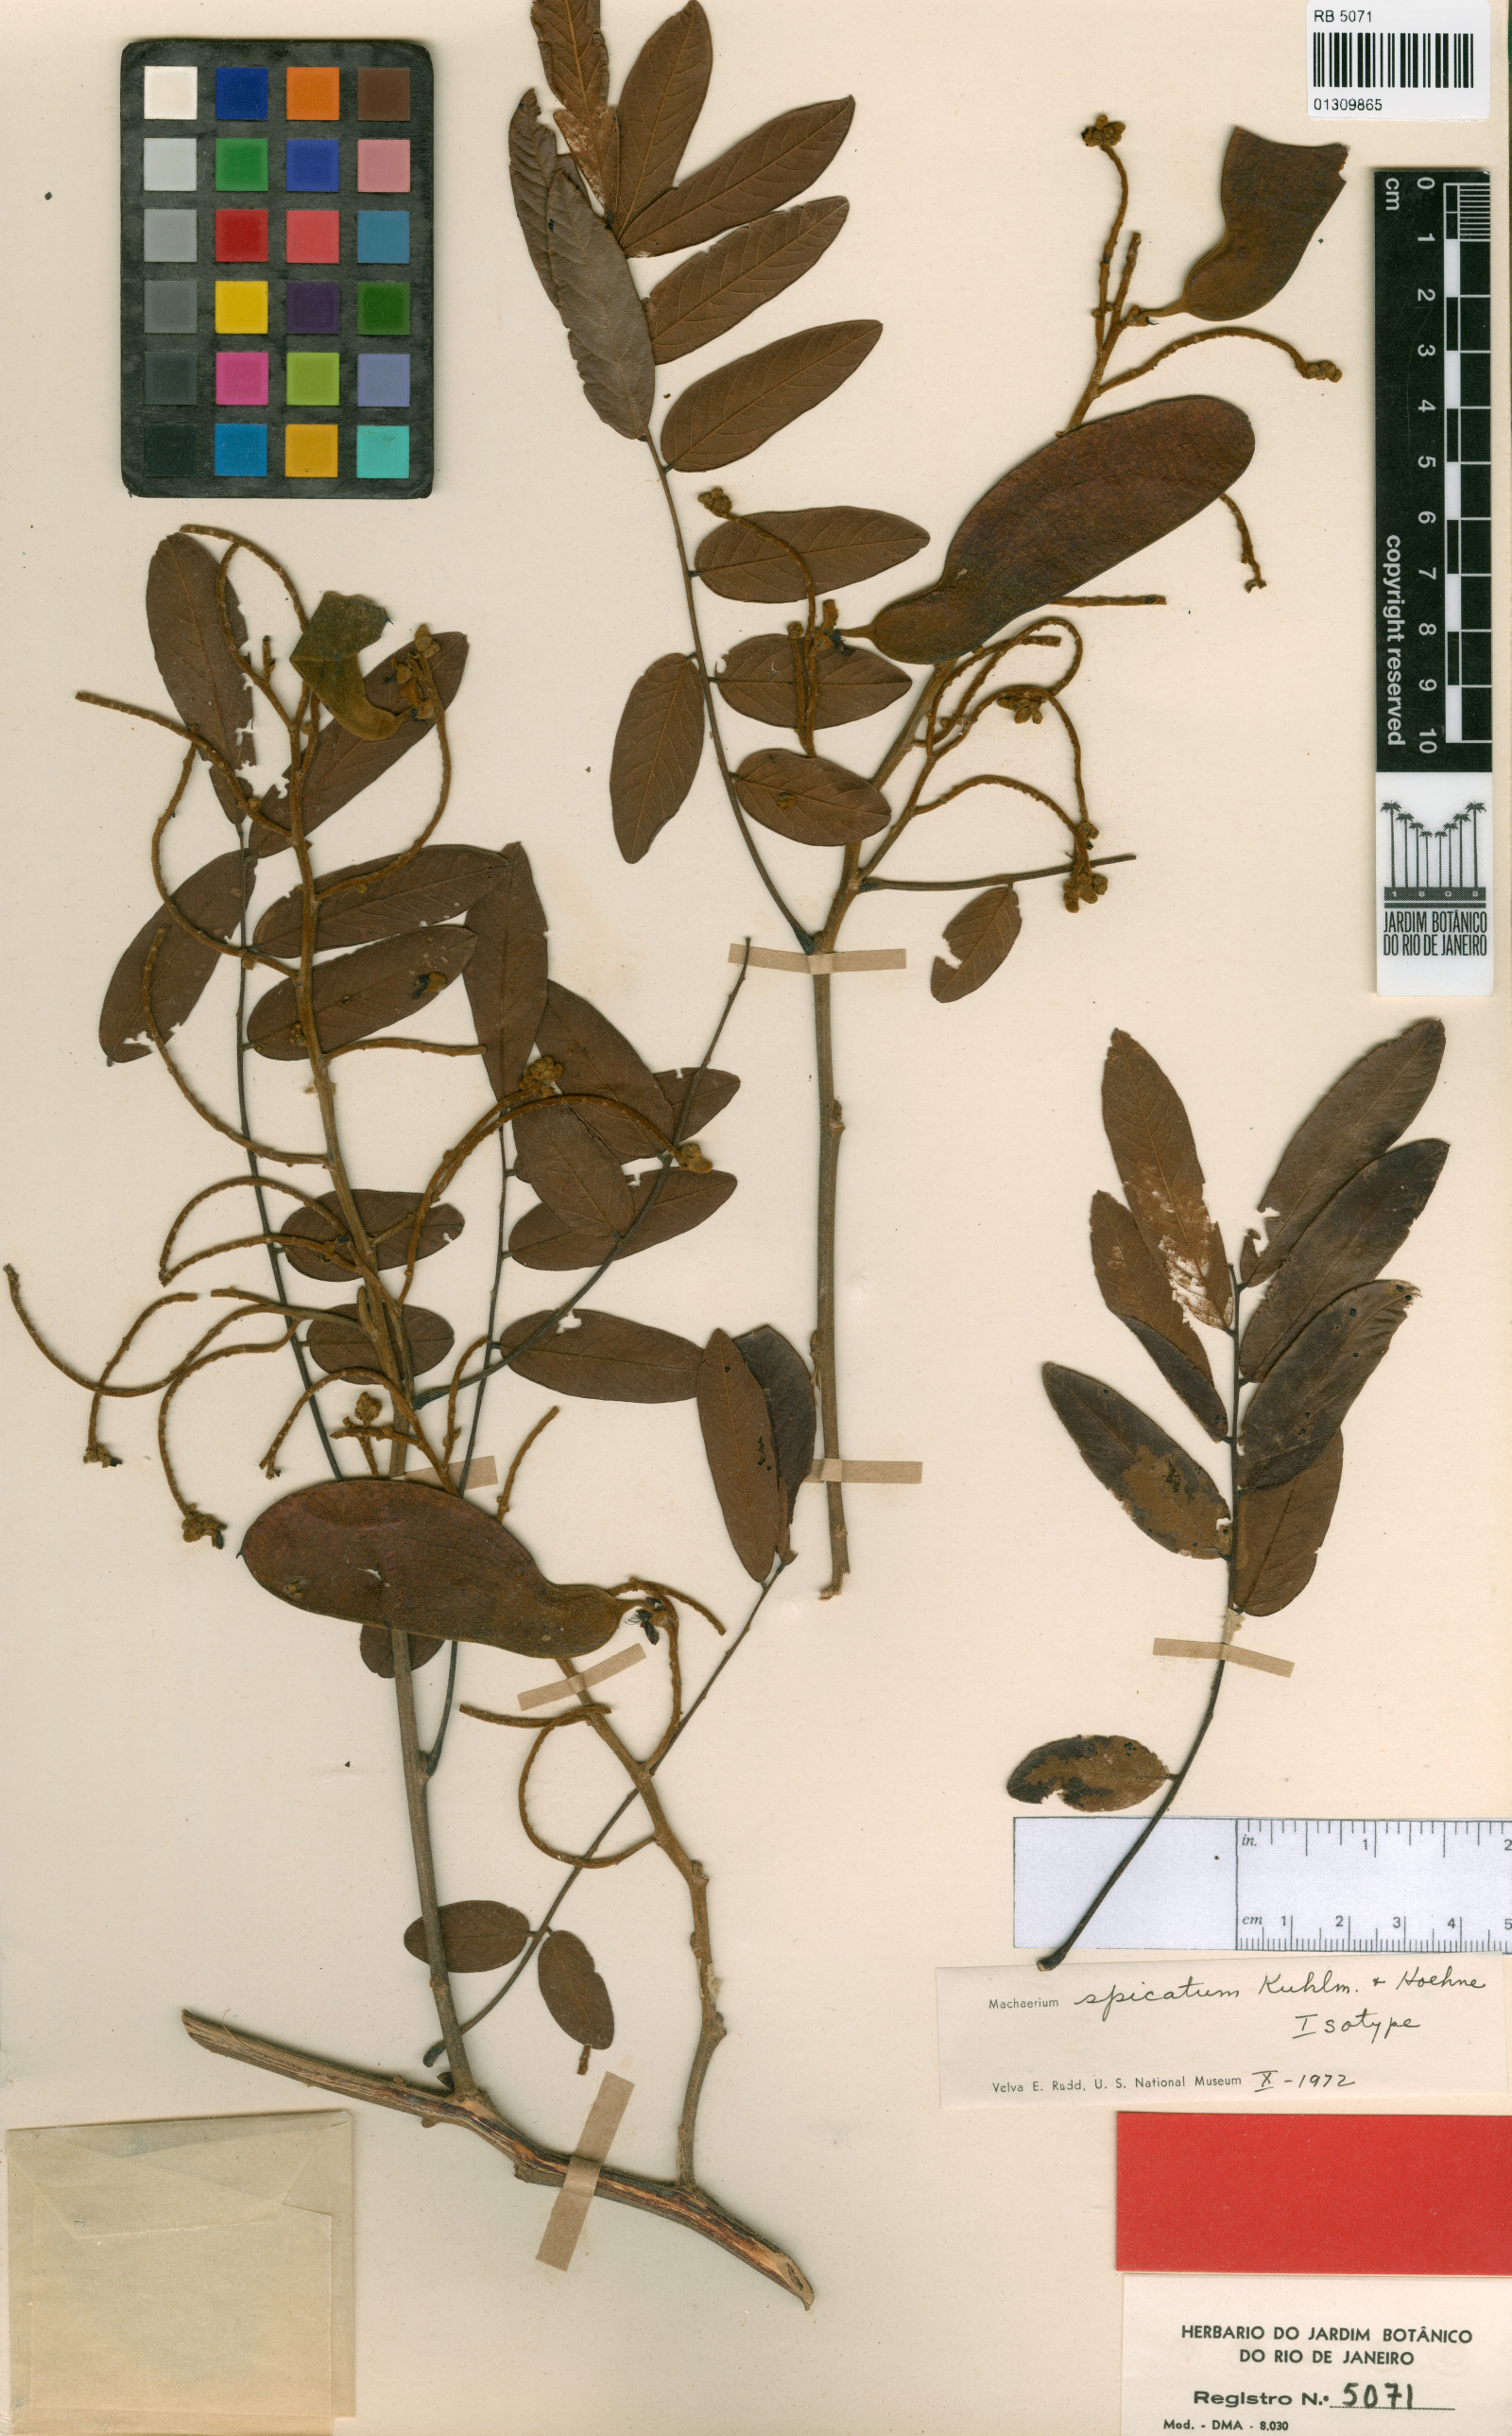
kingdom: Plantae
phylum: Tracheophyta
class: Magnoliopsida
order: Fabales
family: Fabaceae
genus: Machaerium
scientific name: Machaerium spicatum
